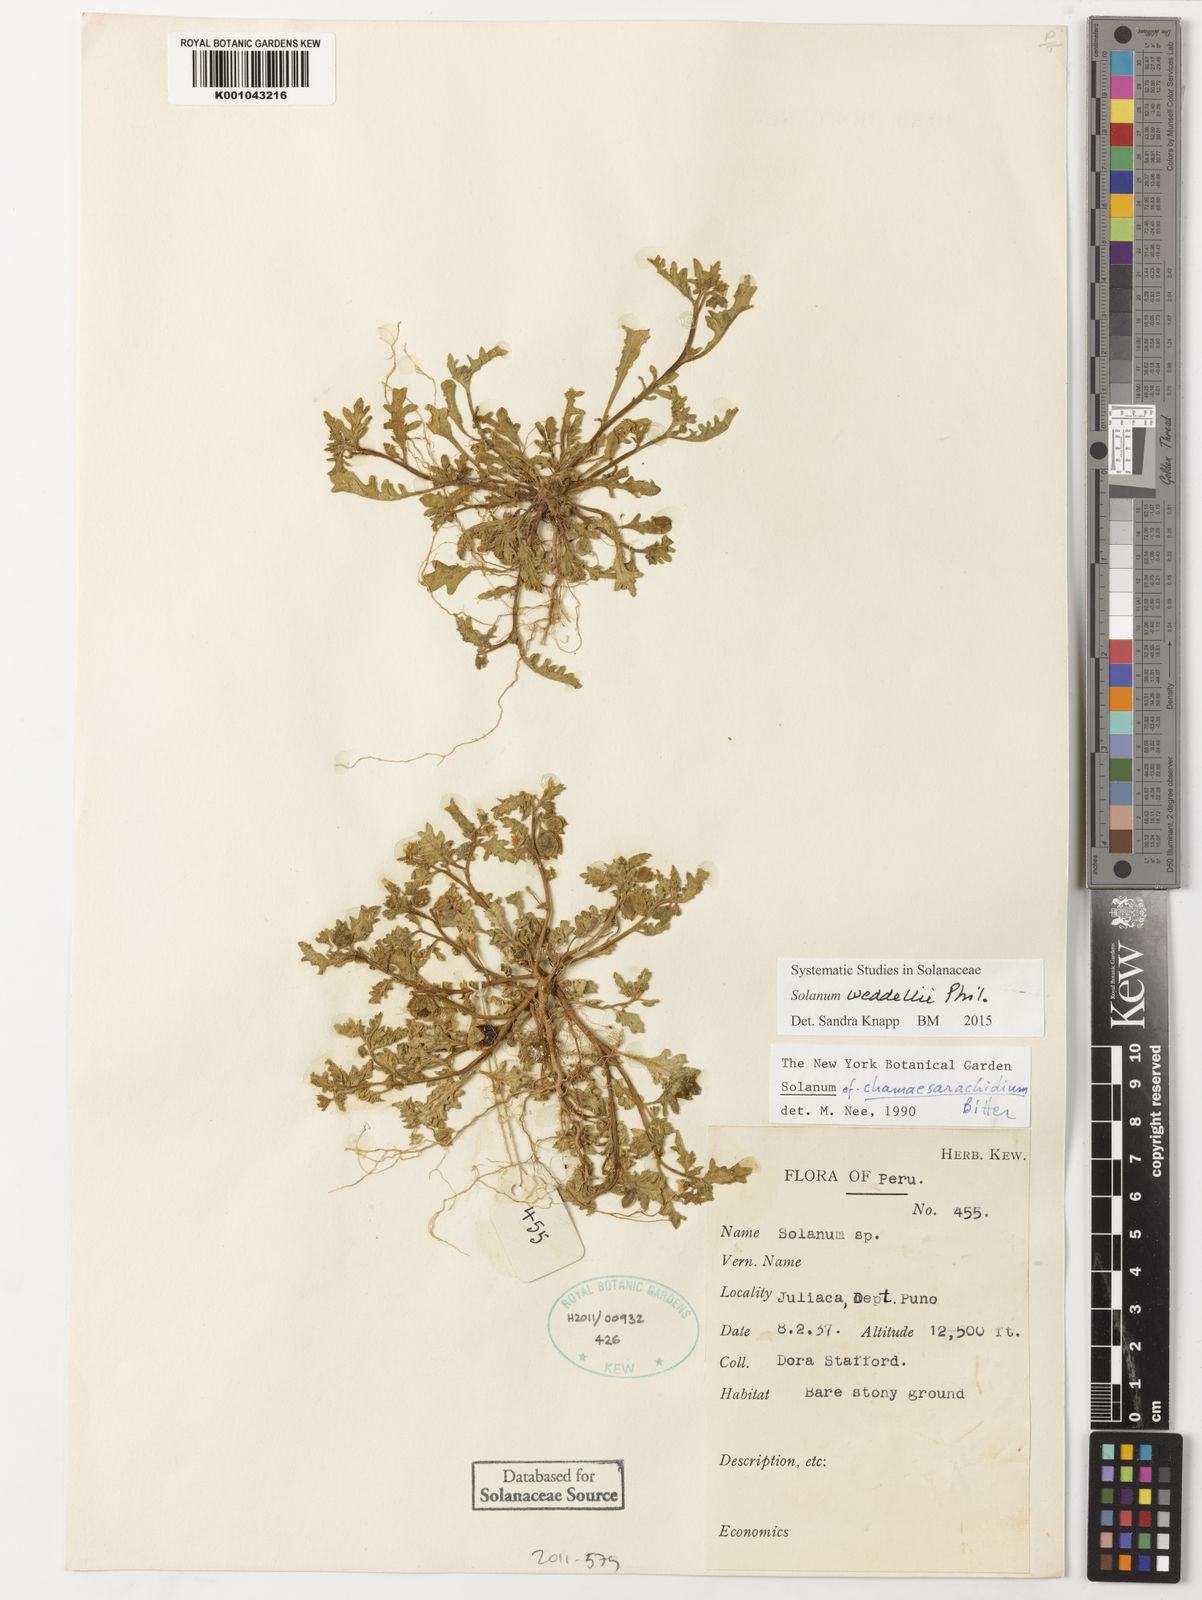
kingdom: Plantae
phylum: Tracheophyta
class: Magnoliopsida
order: Solanales
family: Solanaceae
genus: Solanum
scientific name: Solanum weddellii
